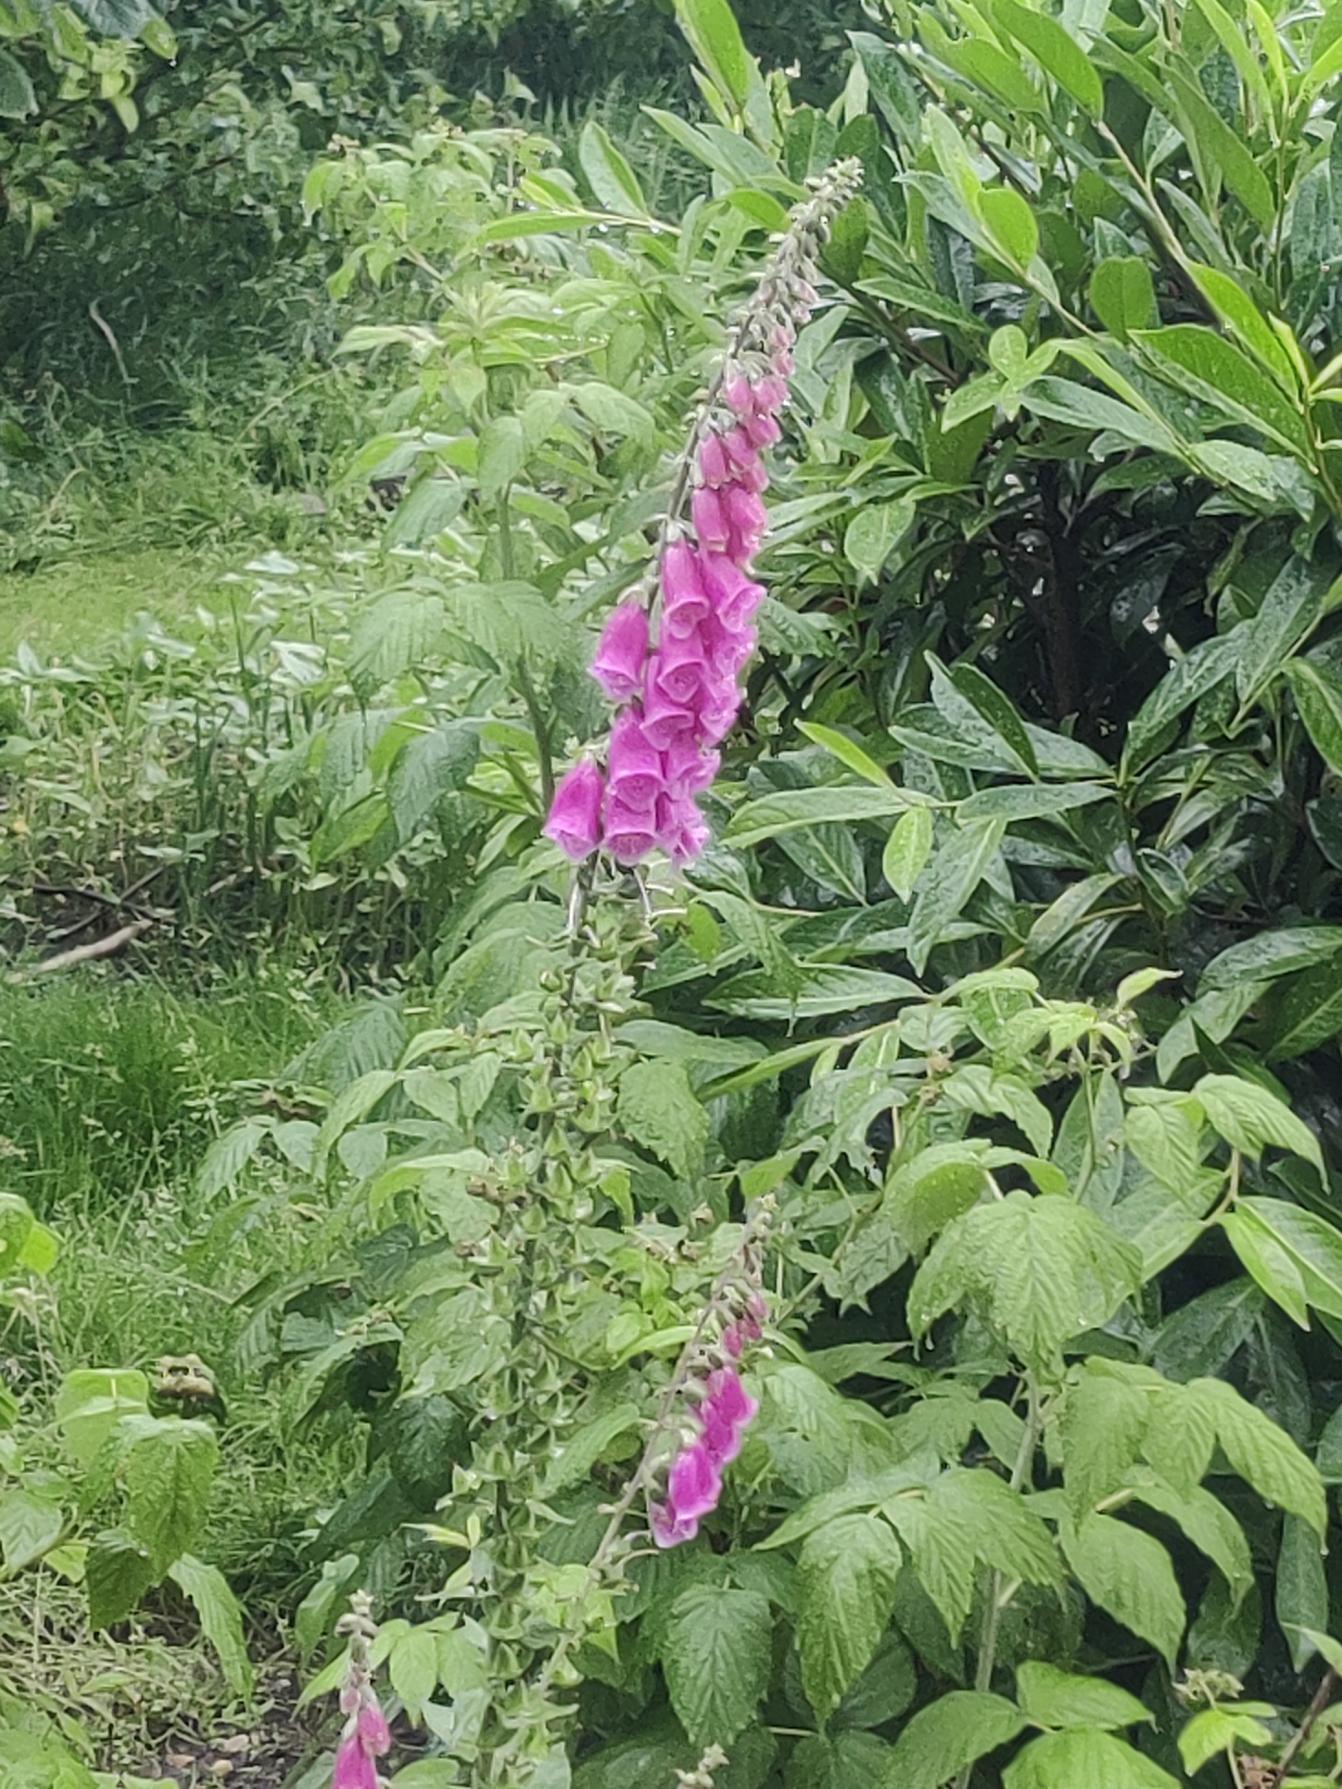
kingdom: Plantae
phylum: Tracheophyta
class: Magnoliopsida
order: Lamiales
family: Plantaginaceae
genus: Digitalis
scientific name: Digitalis purpurea
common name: Almindelig fingerbøl
